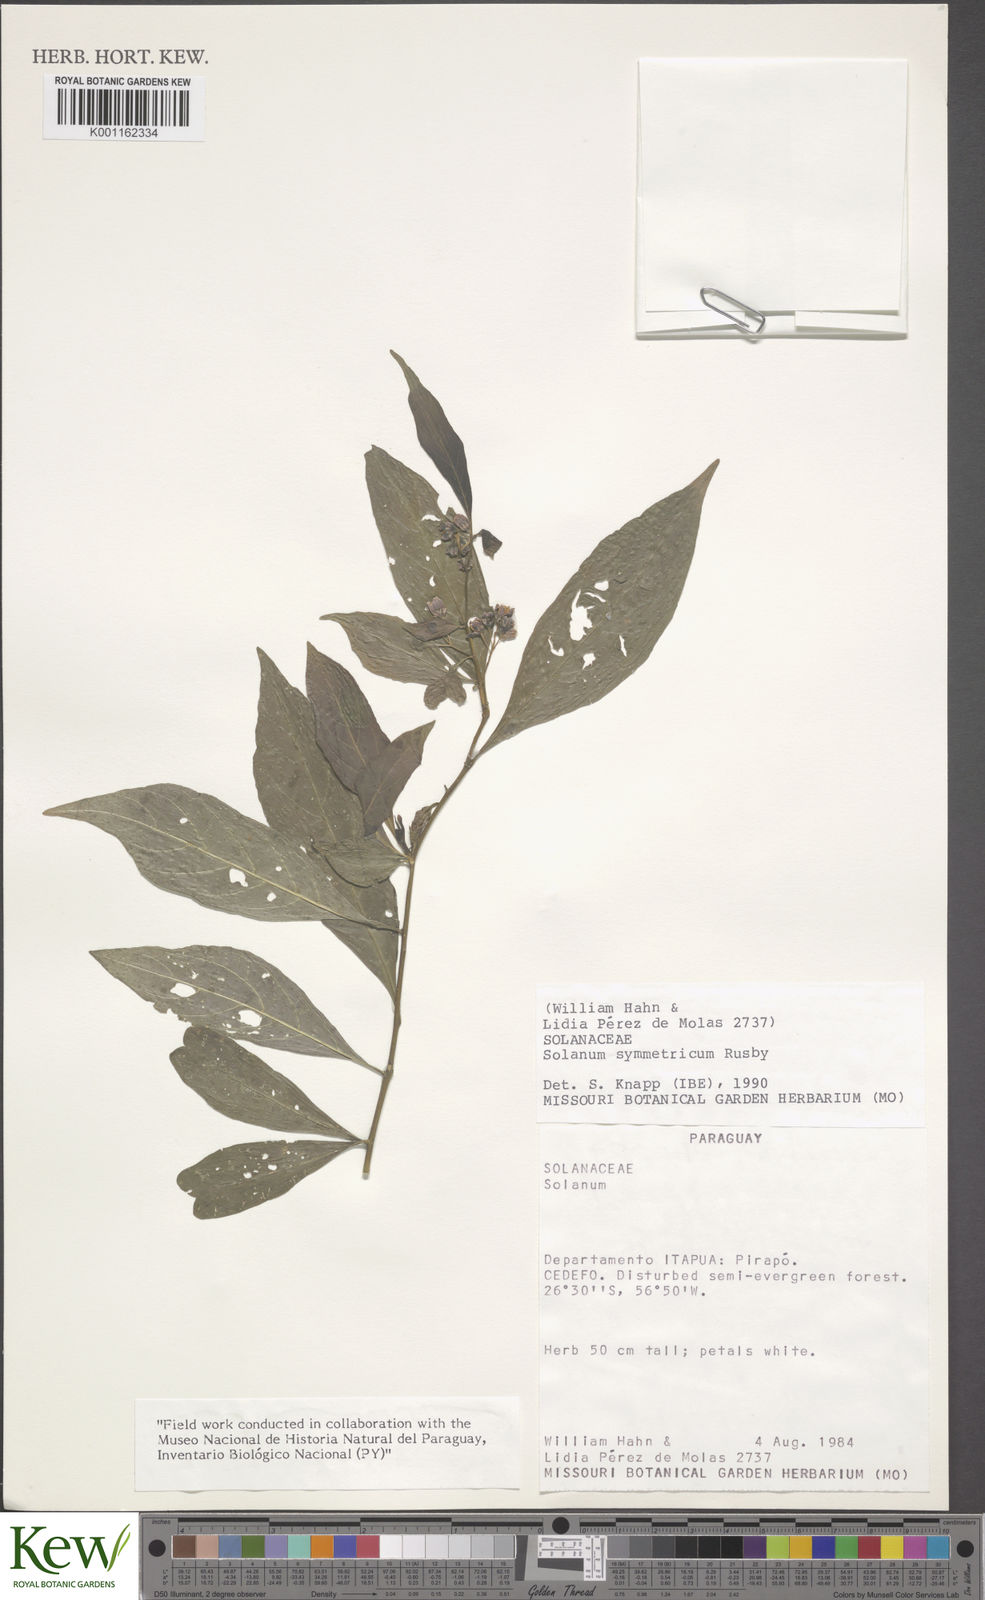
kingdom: Plantae
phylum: Tracheophyta
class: Magnoliopsida
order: Solanales
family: Solanaceae
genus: Solanum
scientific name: Solanum symmetricum
